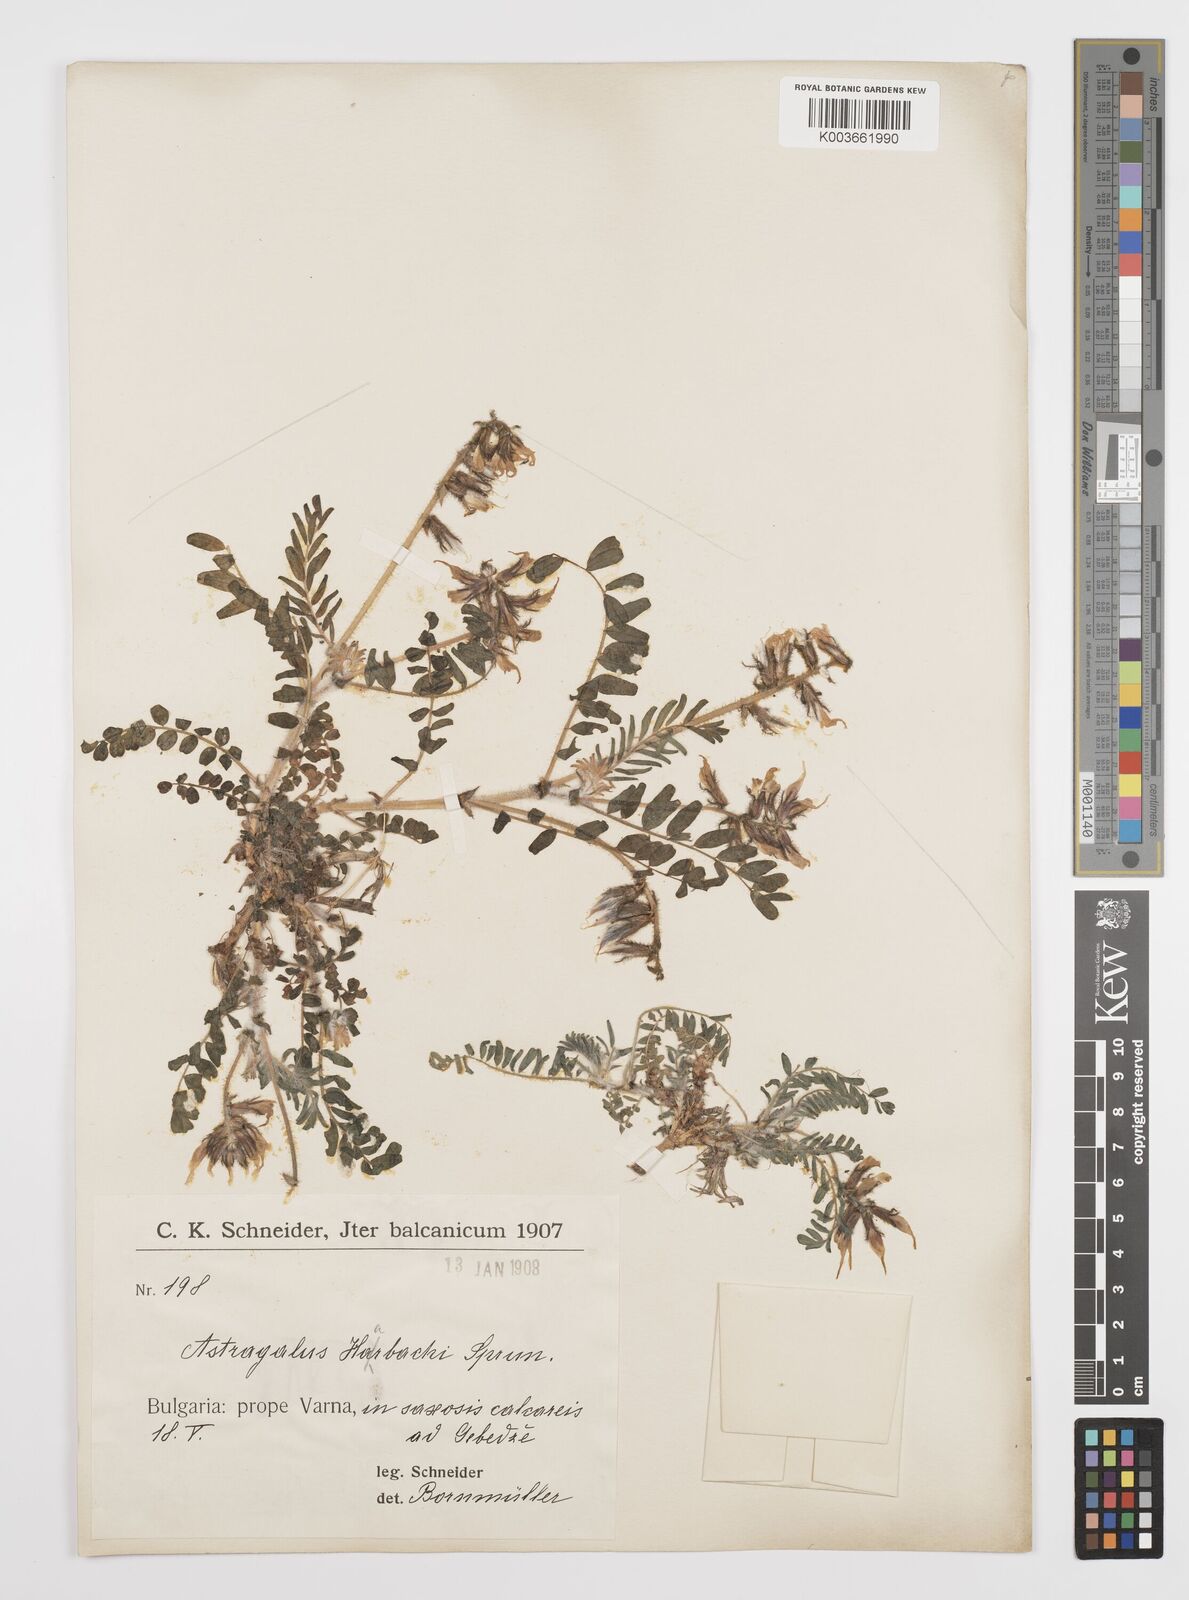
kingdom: Plantae
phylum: Tracheophyta
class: Magnoliopsida
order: Fabales
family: Fabaceae
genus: Astragalus
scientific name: Astragalus suberosus
